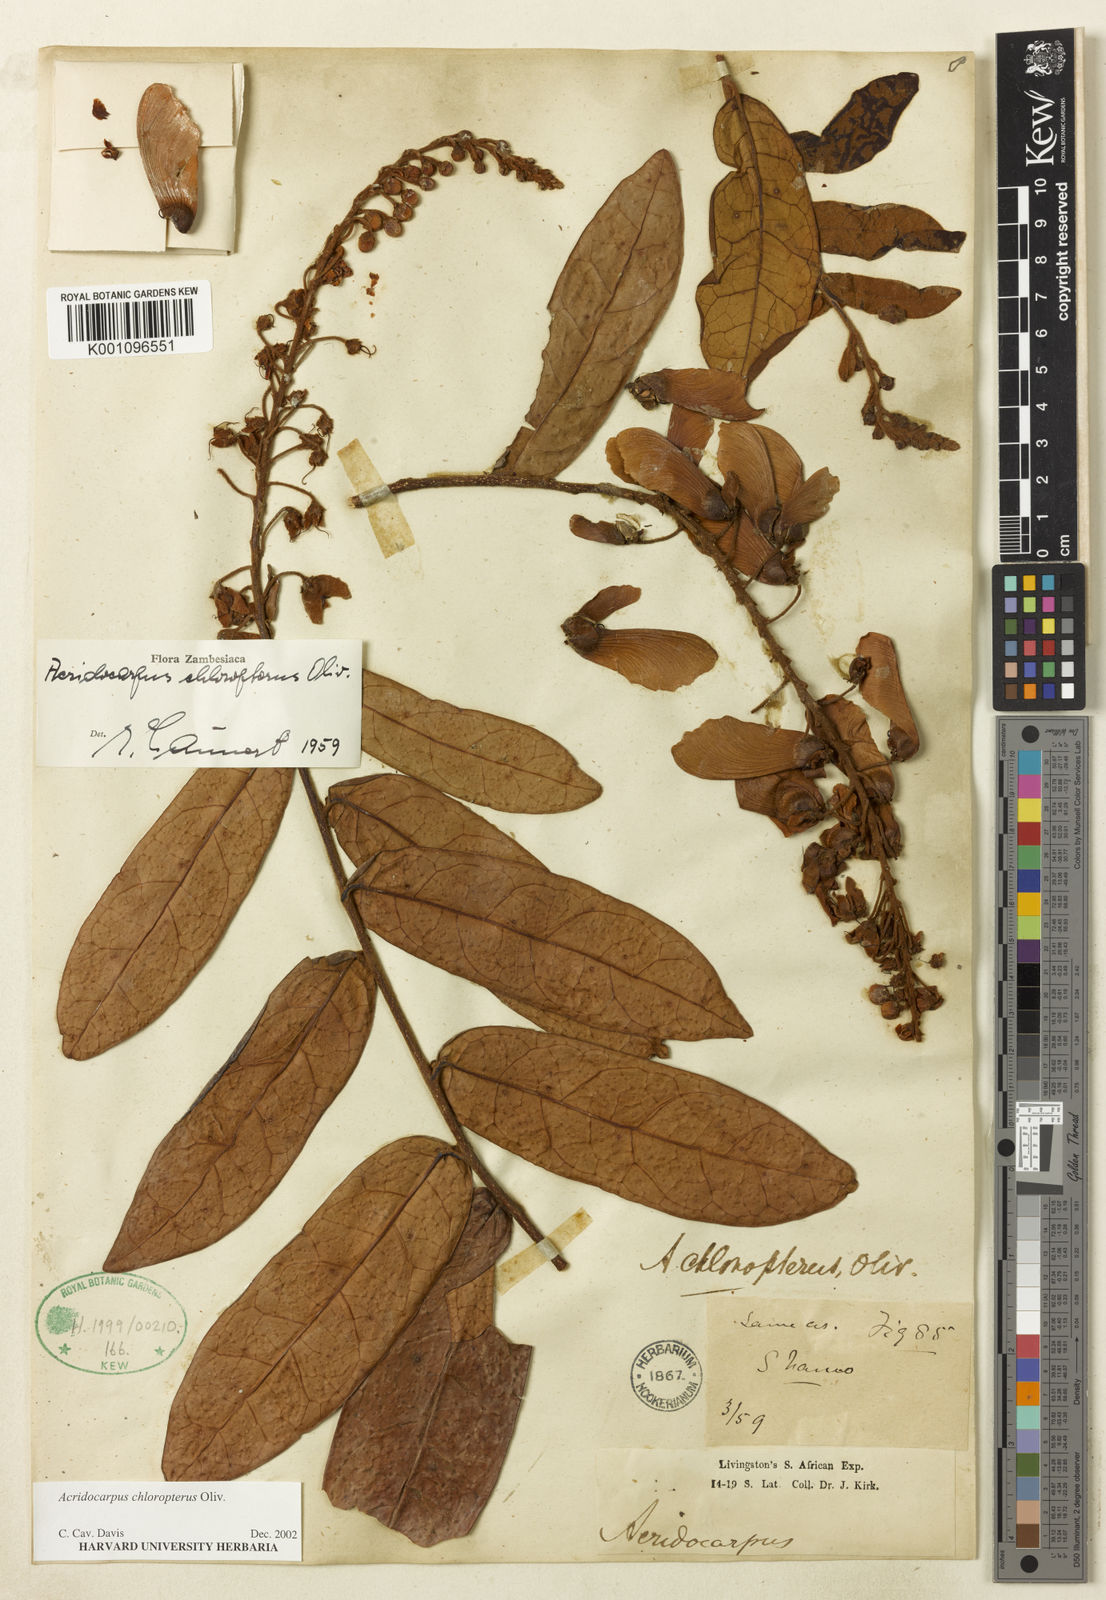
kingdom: Plantae
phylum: Tracheophyta
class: Magnoliopsida
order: Malpighiales
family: Malpighiaceae
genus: Acridocarpus
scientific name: Acridocarpus chloropterus
